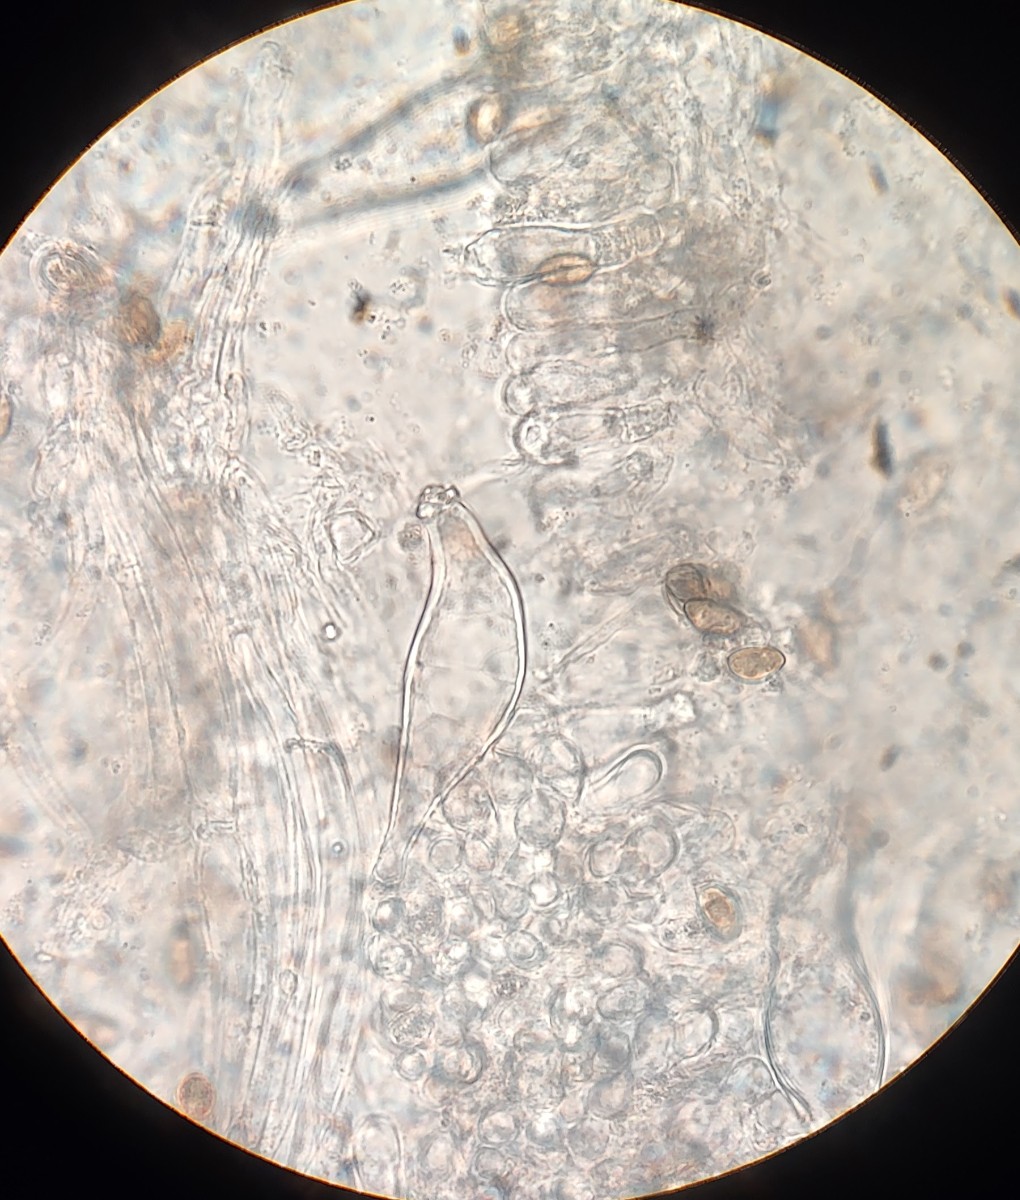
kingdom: Fungi
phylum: Basidiomycota
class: Agaricomycetes
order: Agaricales
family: Inocybaceae
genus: Inocybe
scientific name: Inocybe
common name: trævlhat
